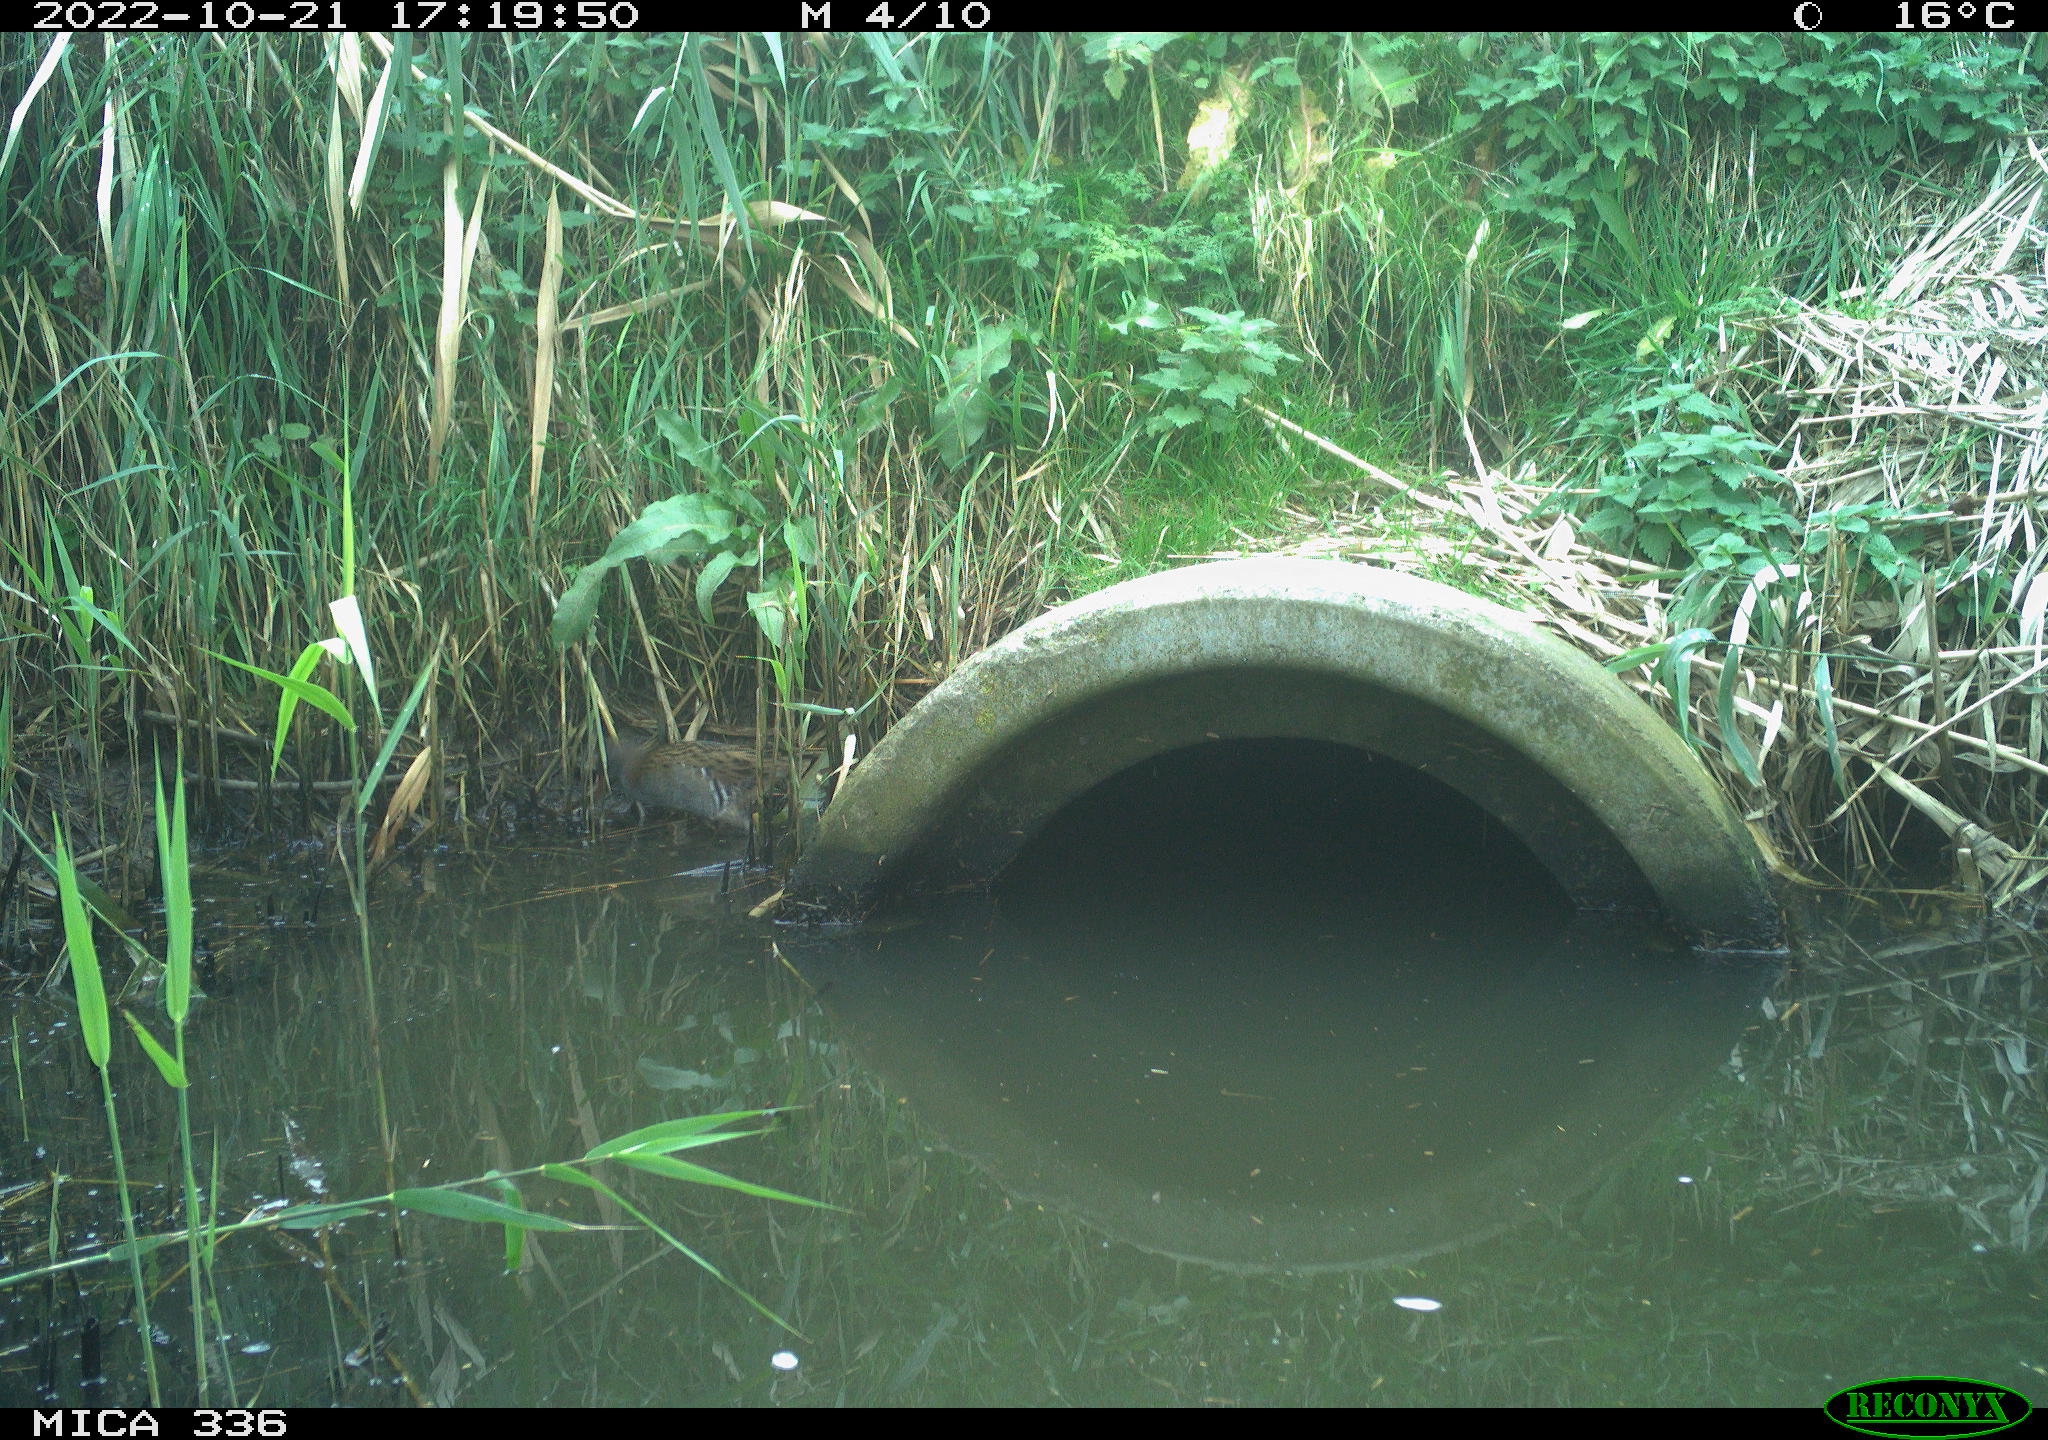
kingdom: Animalia
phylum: Chordata
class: Aves
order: Gruiformes
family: Rallidae
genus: Rallus
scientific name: Rallus aquaticus
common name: Water rail
